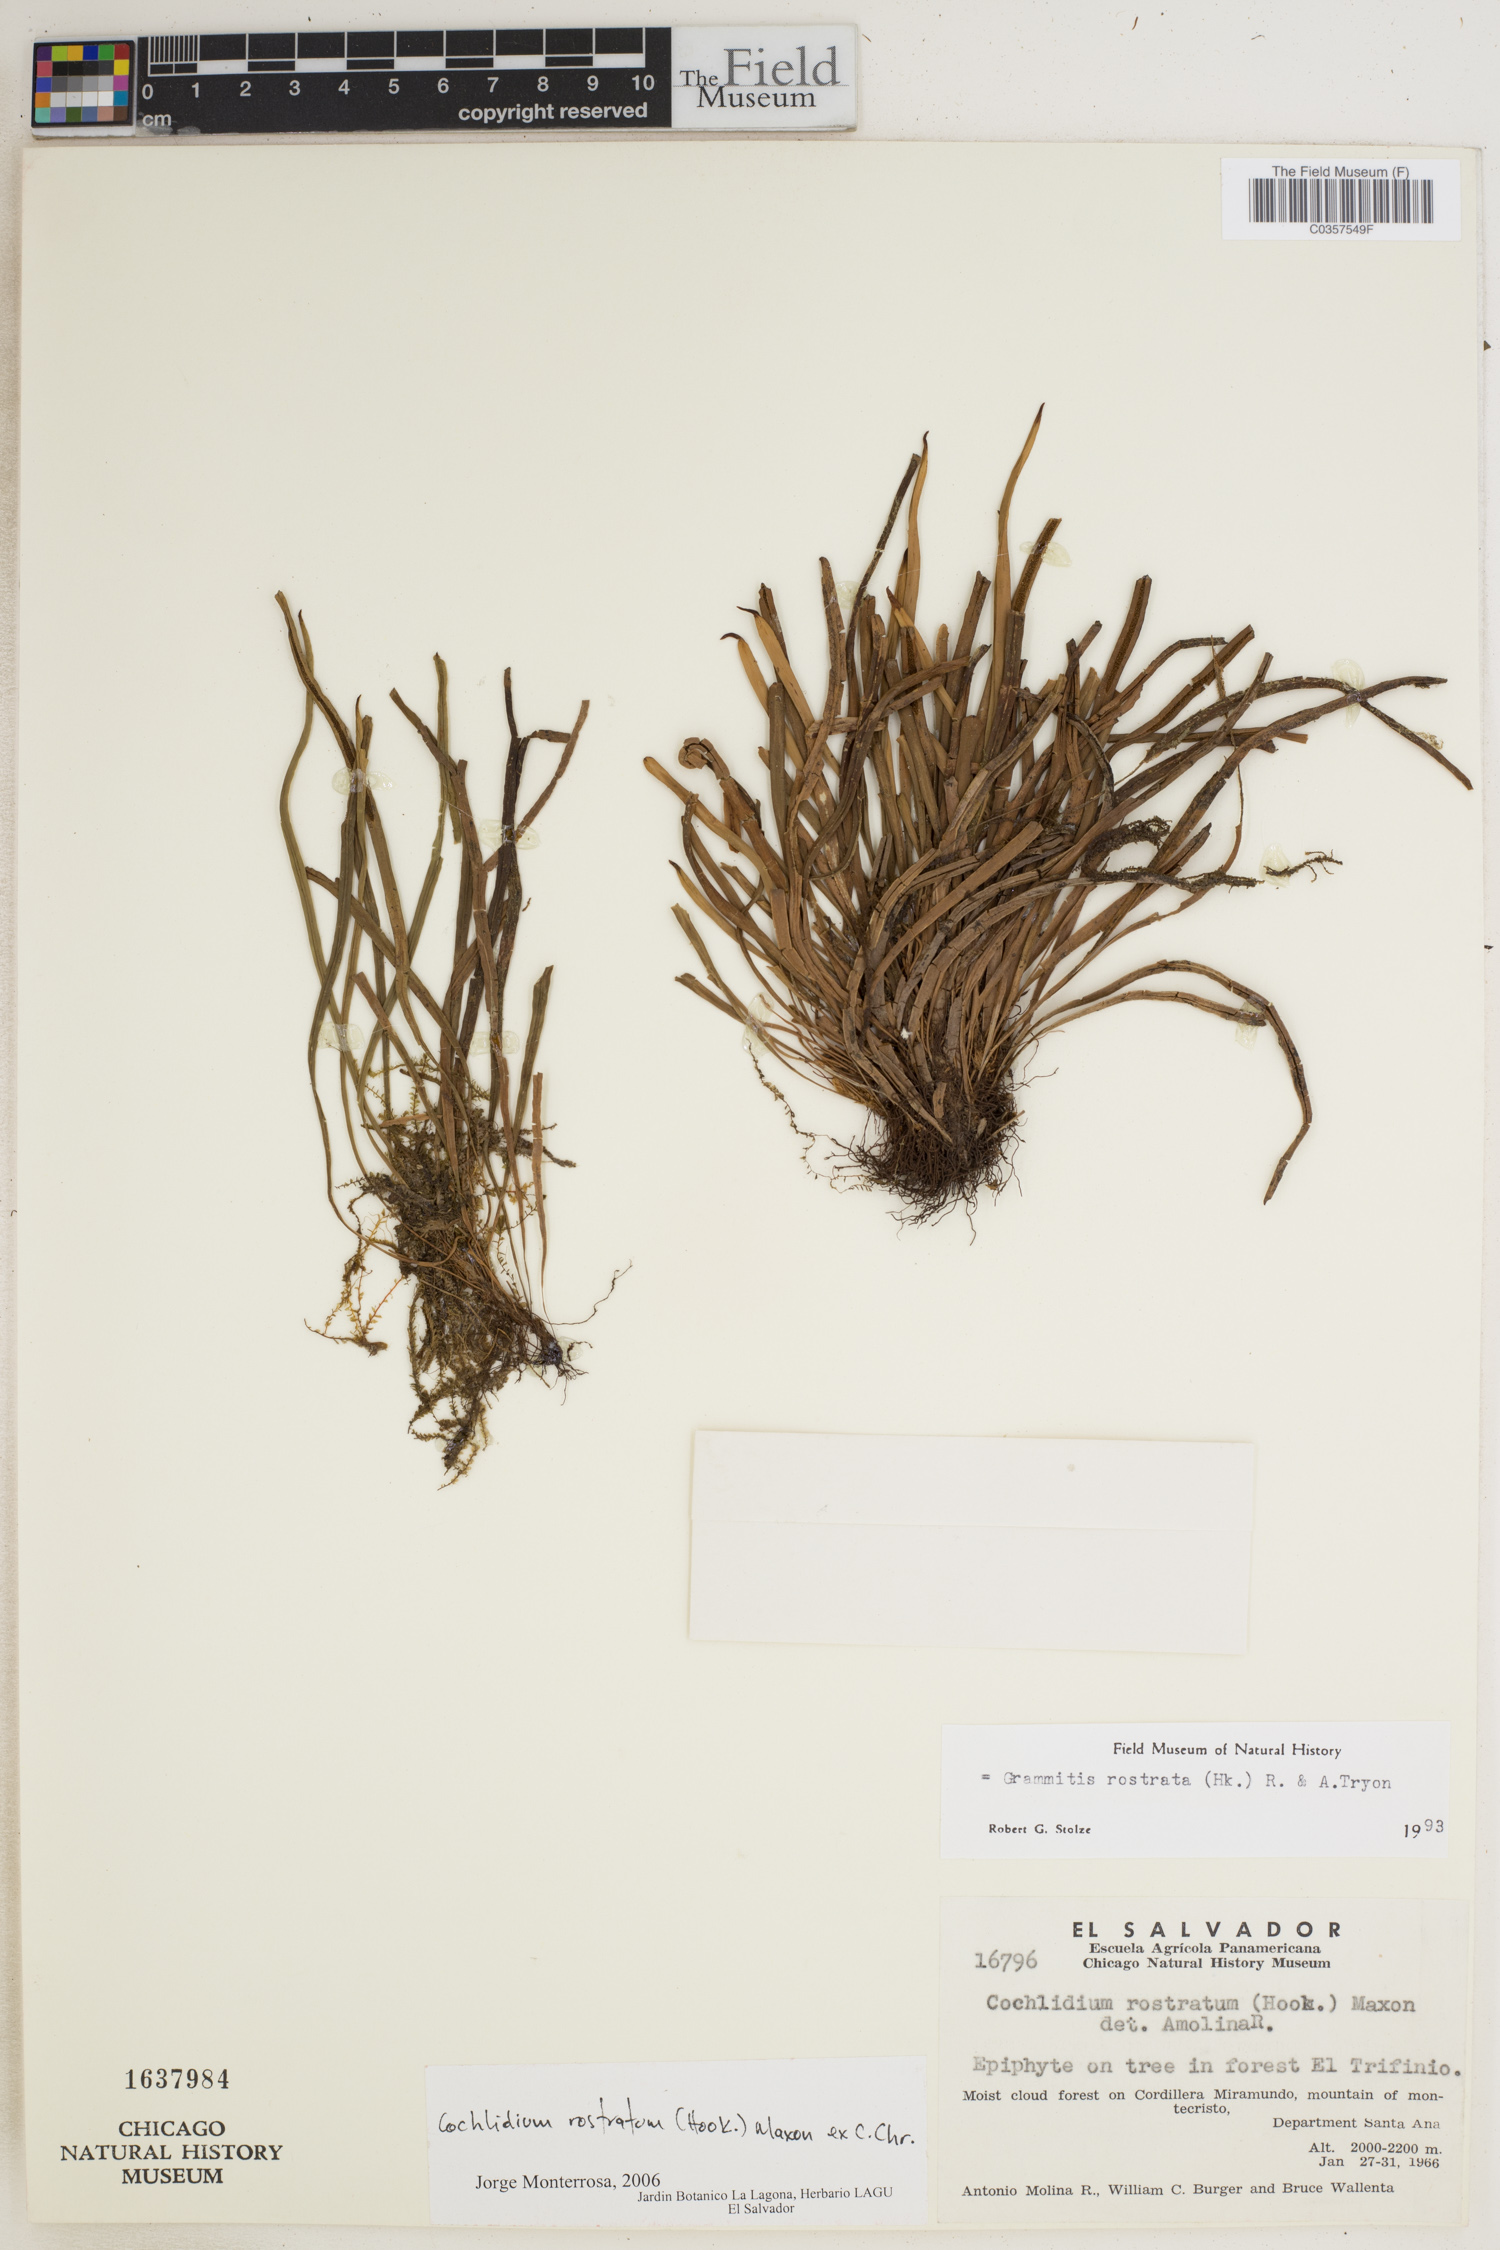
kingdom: Plantae
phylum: Tracheophyta
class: Polypodiopsida
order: Polypodiales
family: Polypodiaceae
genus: Cochlidium
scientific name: Cochlidium rostratum
